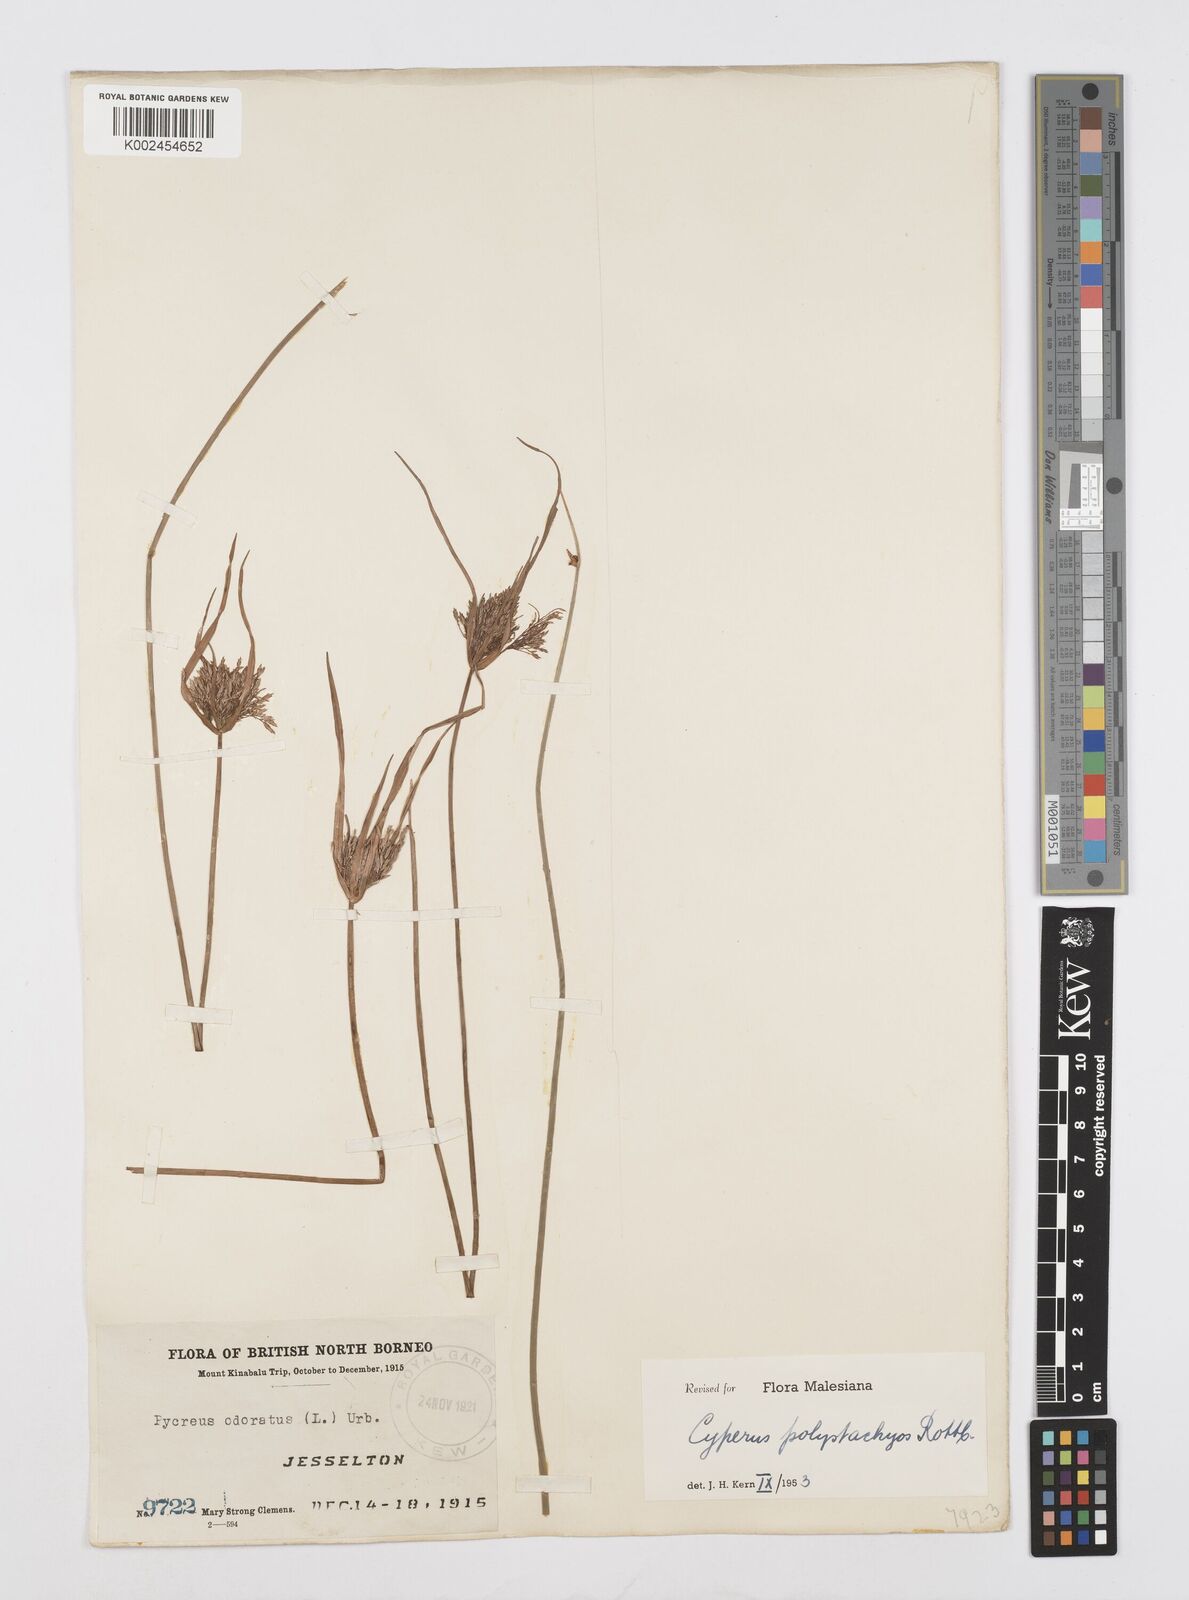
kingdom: Plantae
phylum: Tracheophyta
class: Liliopsida
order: Poales
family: Cyperaceae
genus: Cyperus
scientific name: Cyperus polystachyos
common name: Bunchy flat sedge
